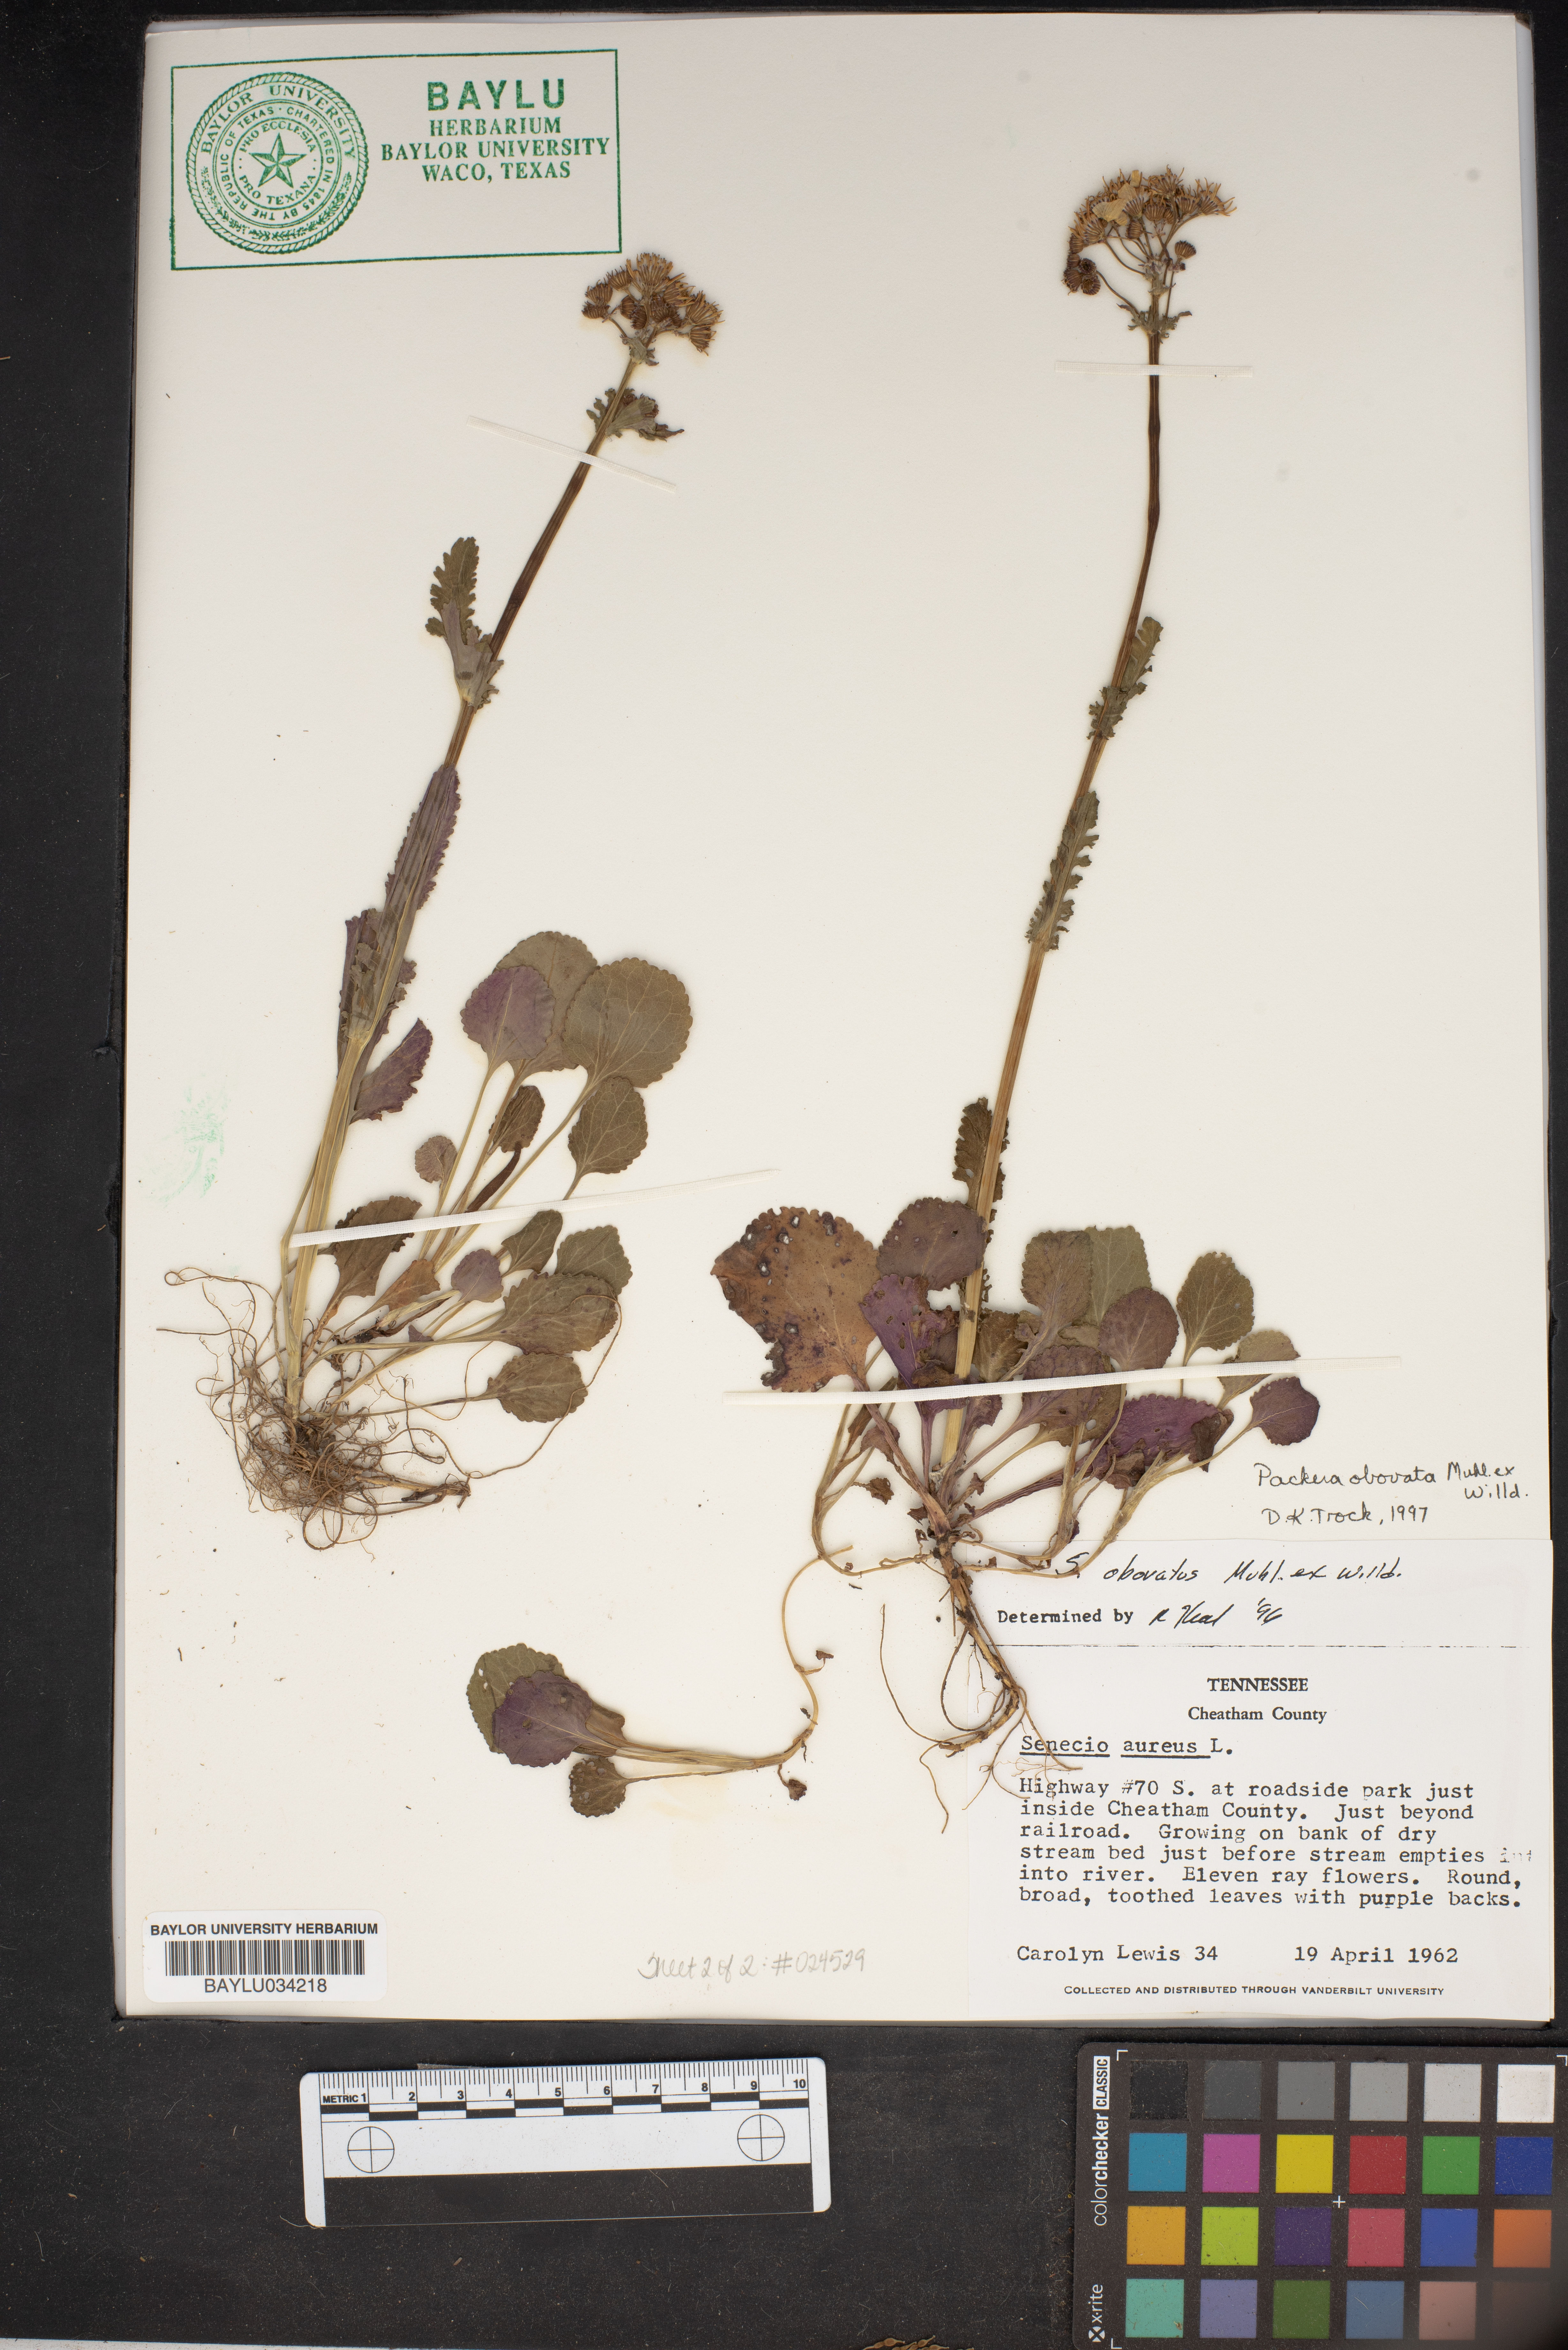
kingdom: Plantae
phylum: Tracheophyta
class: Magnoliopsida
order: Asterales
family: Asteraceae
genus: Packera
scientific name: Packera aurea
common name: Golden groundsel
